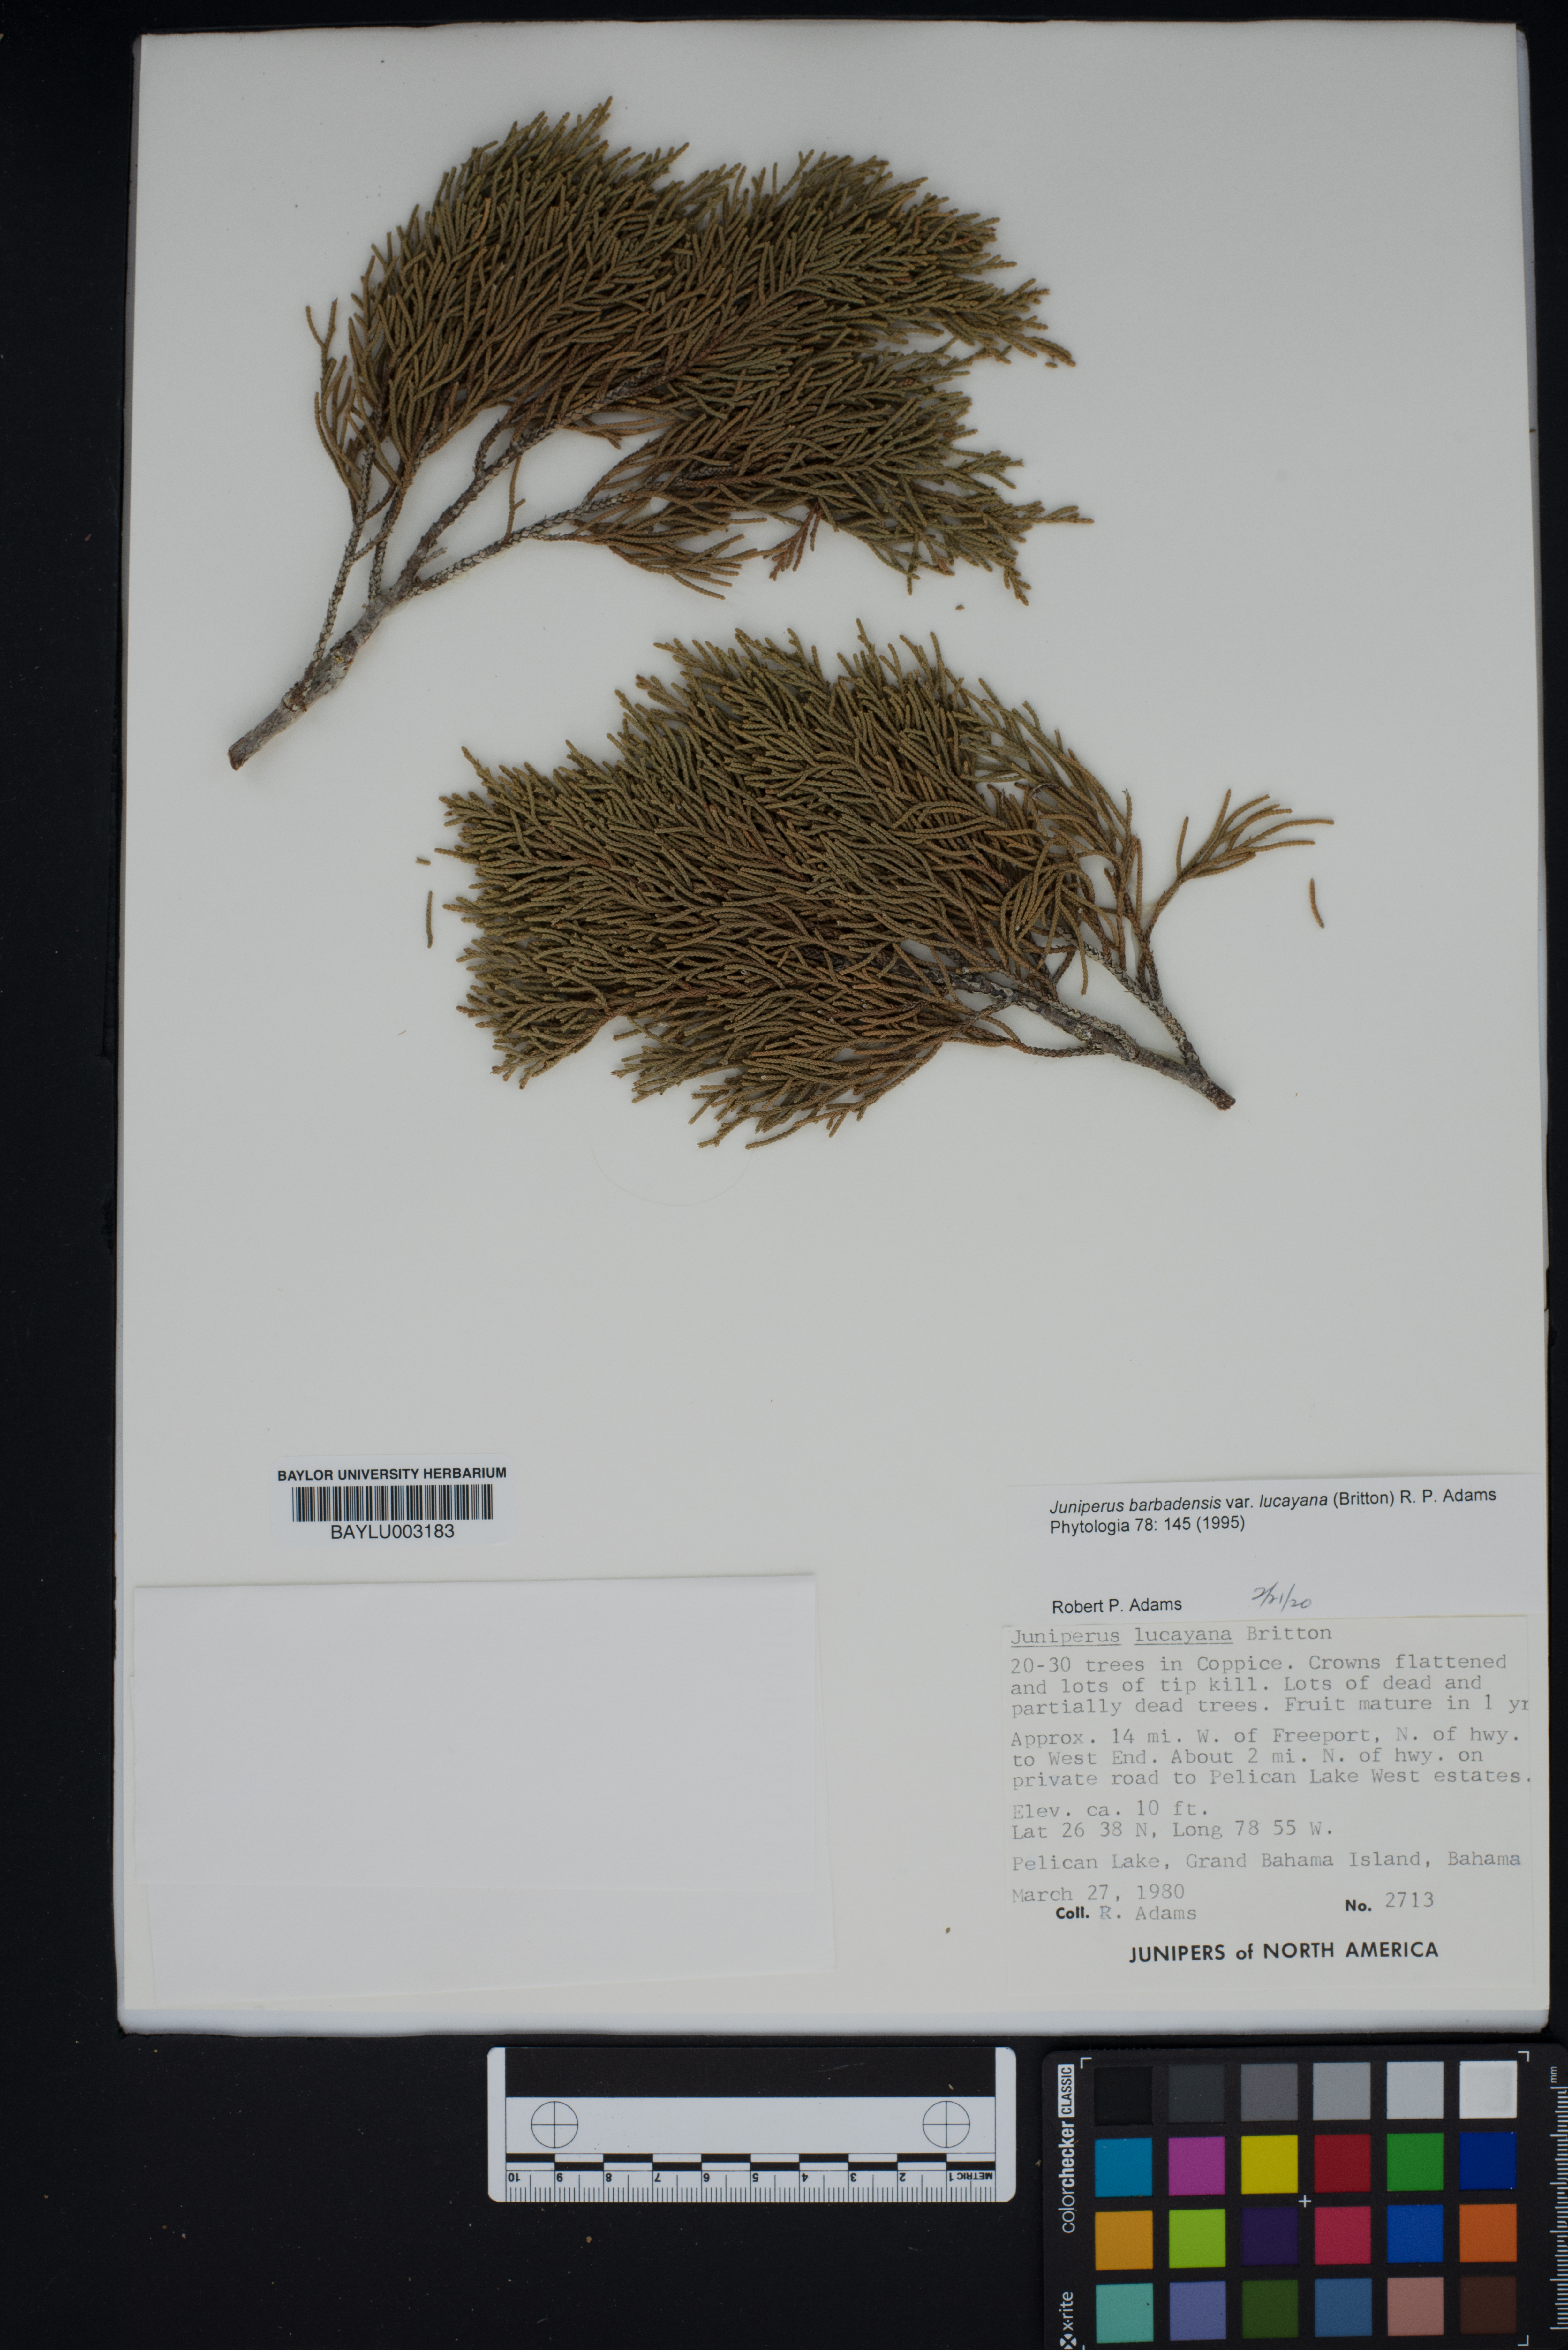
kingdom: Plantae
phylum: Tracheophyta
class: Pinopsida
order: Pinales
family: Cupressaceae
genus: Juniperus
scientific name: Juniperus barbadensis
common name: West indies juniper
